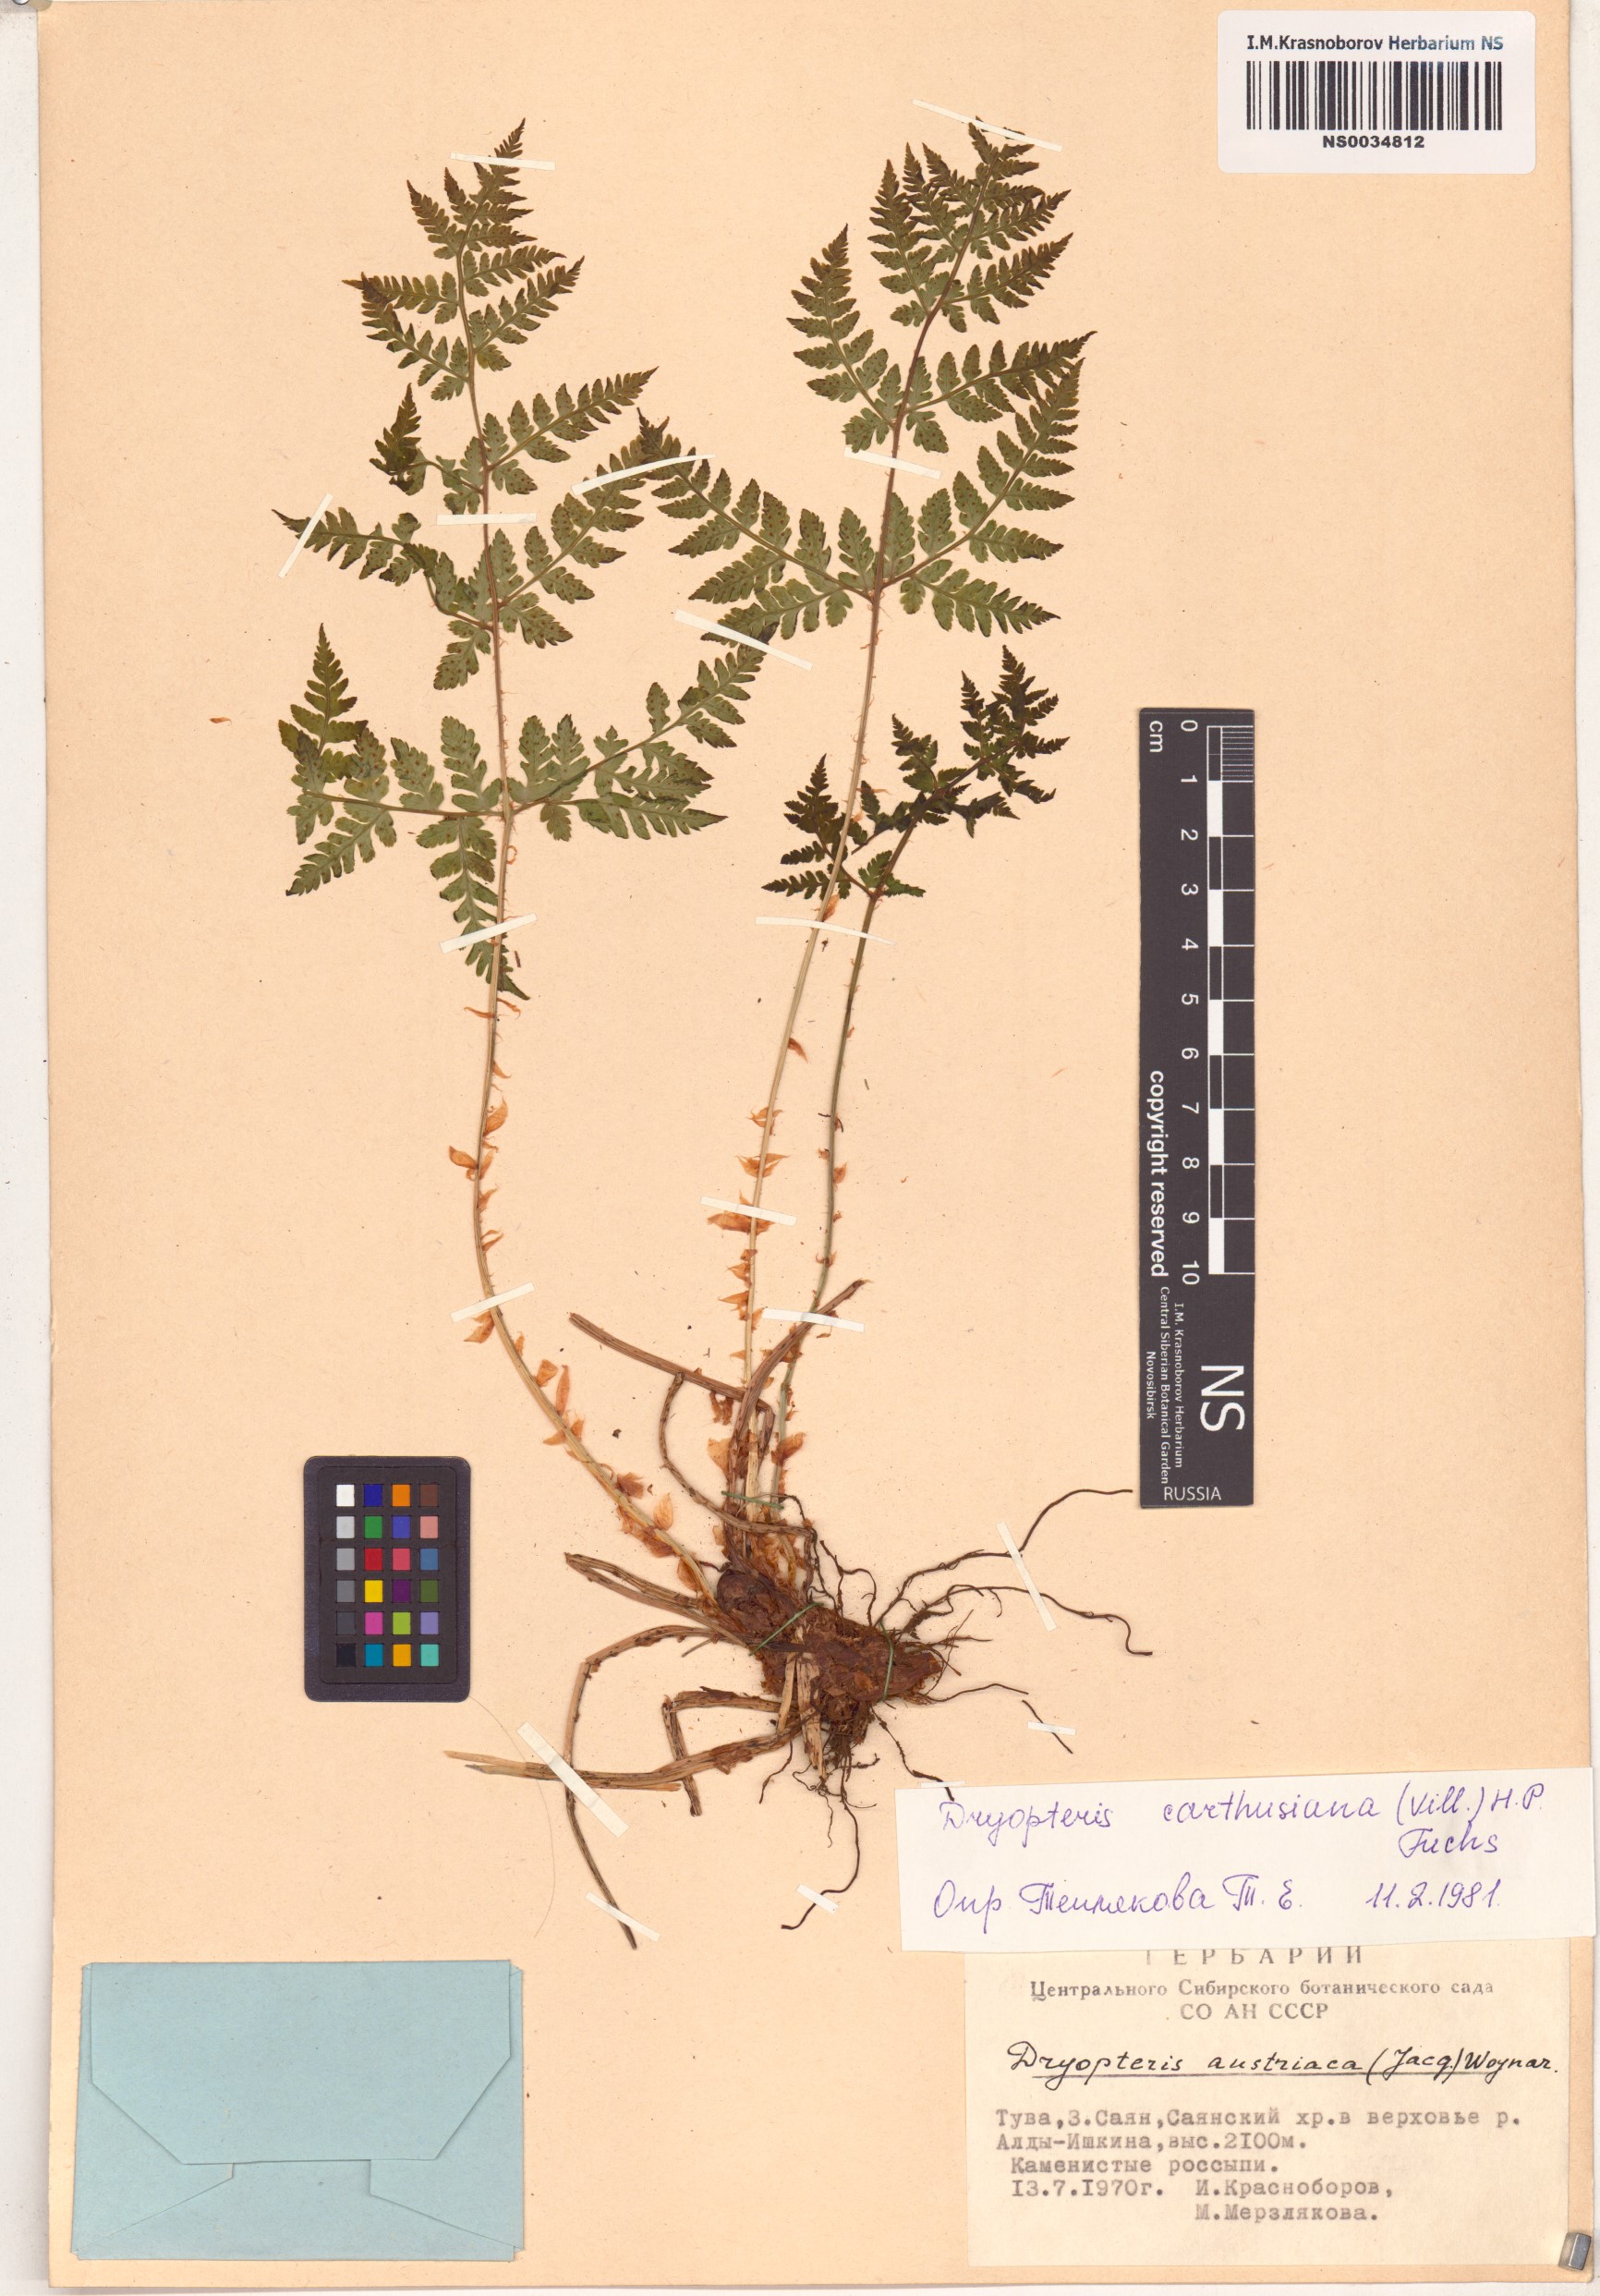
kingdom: Plantae
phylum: Tracheophyta
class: Polypodiopsida
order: Polypodiales
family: Dryopteridaceae
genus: Dryopteris
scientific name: Dryopteris carthusiana
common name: Narrow buckler-fern
